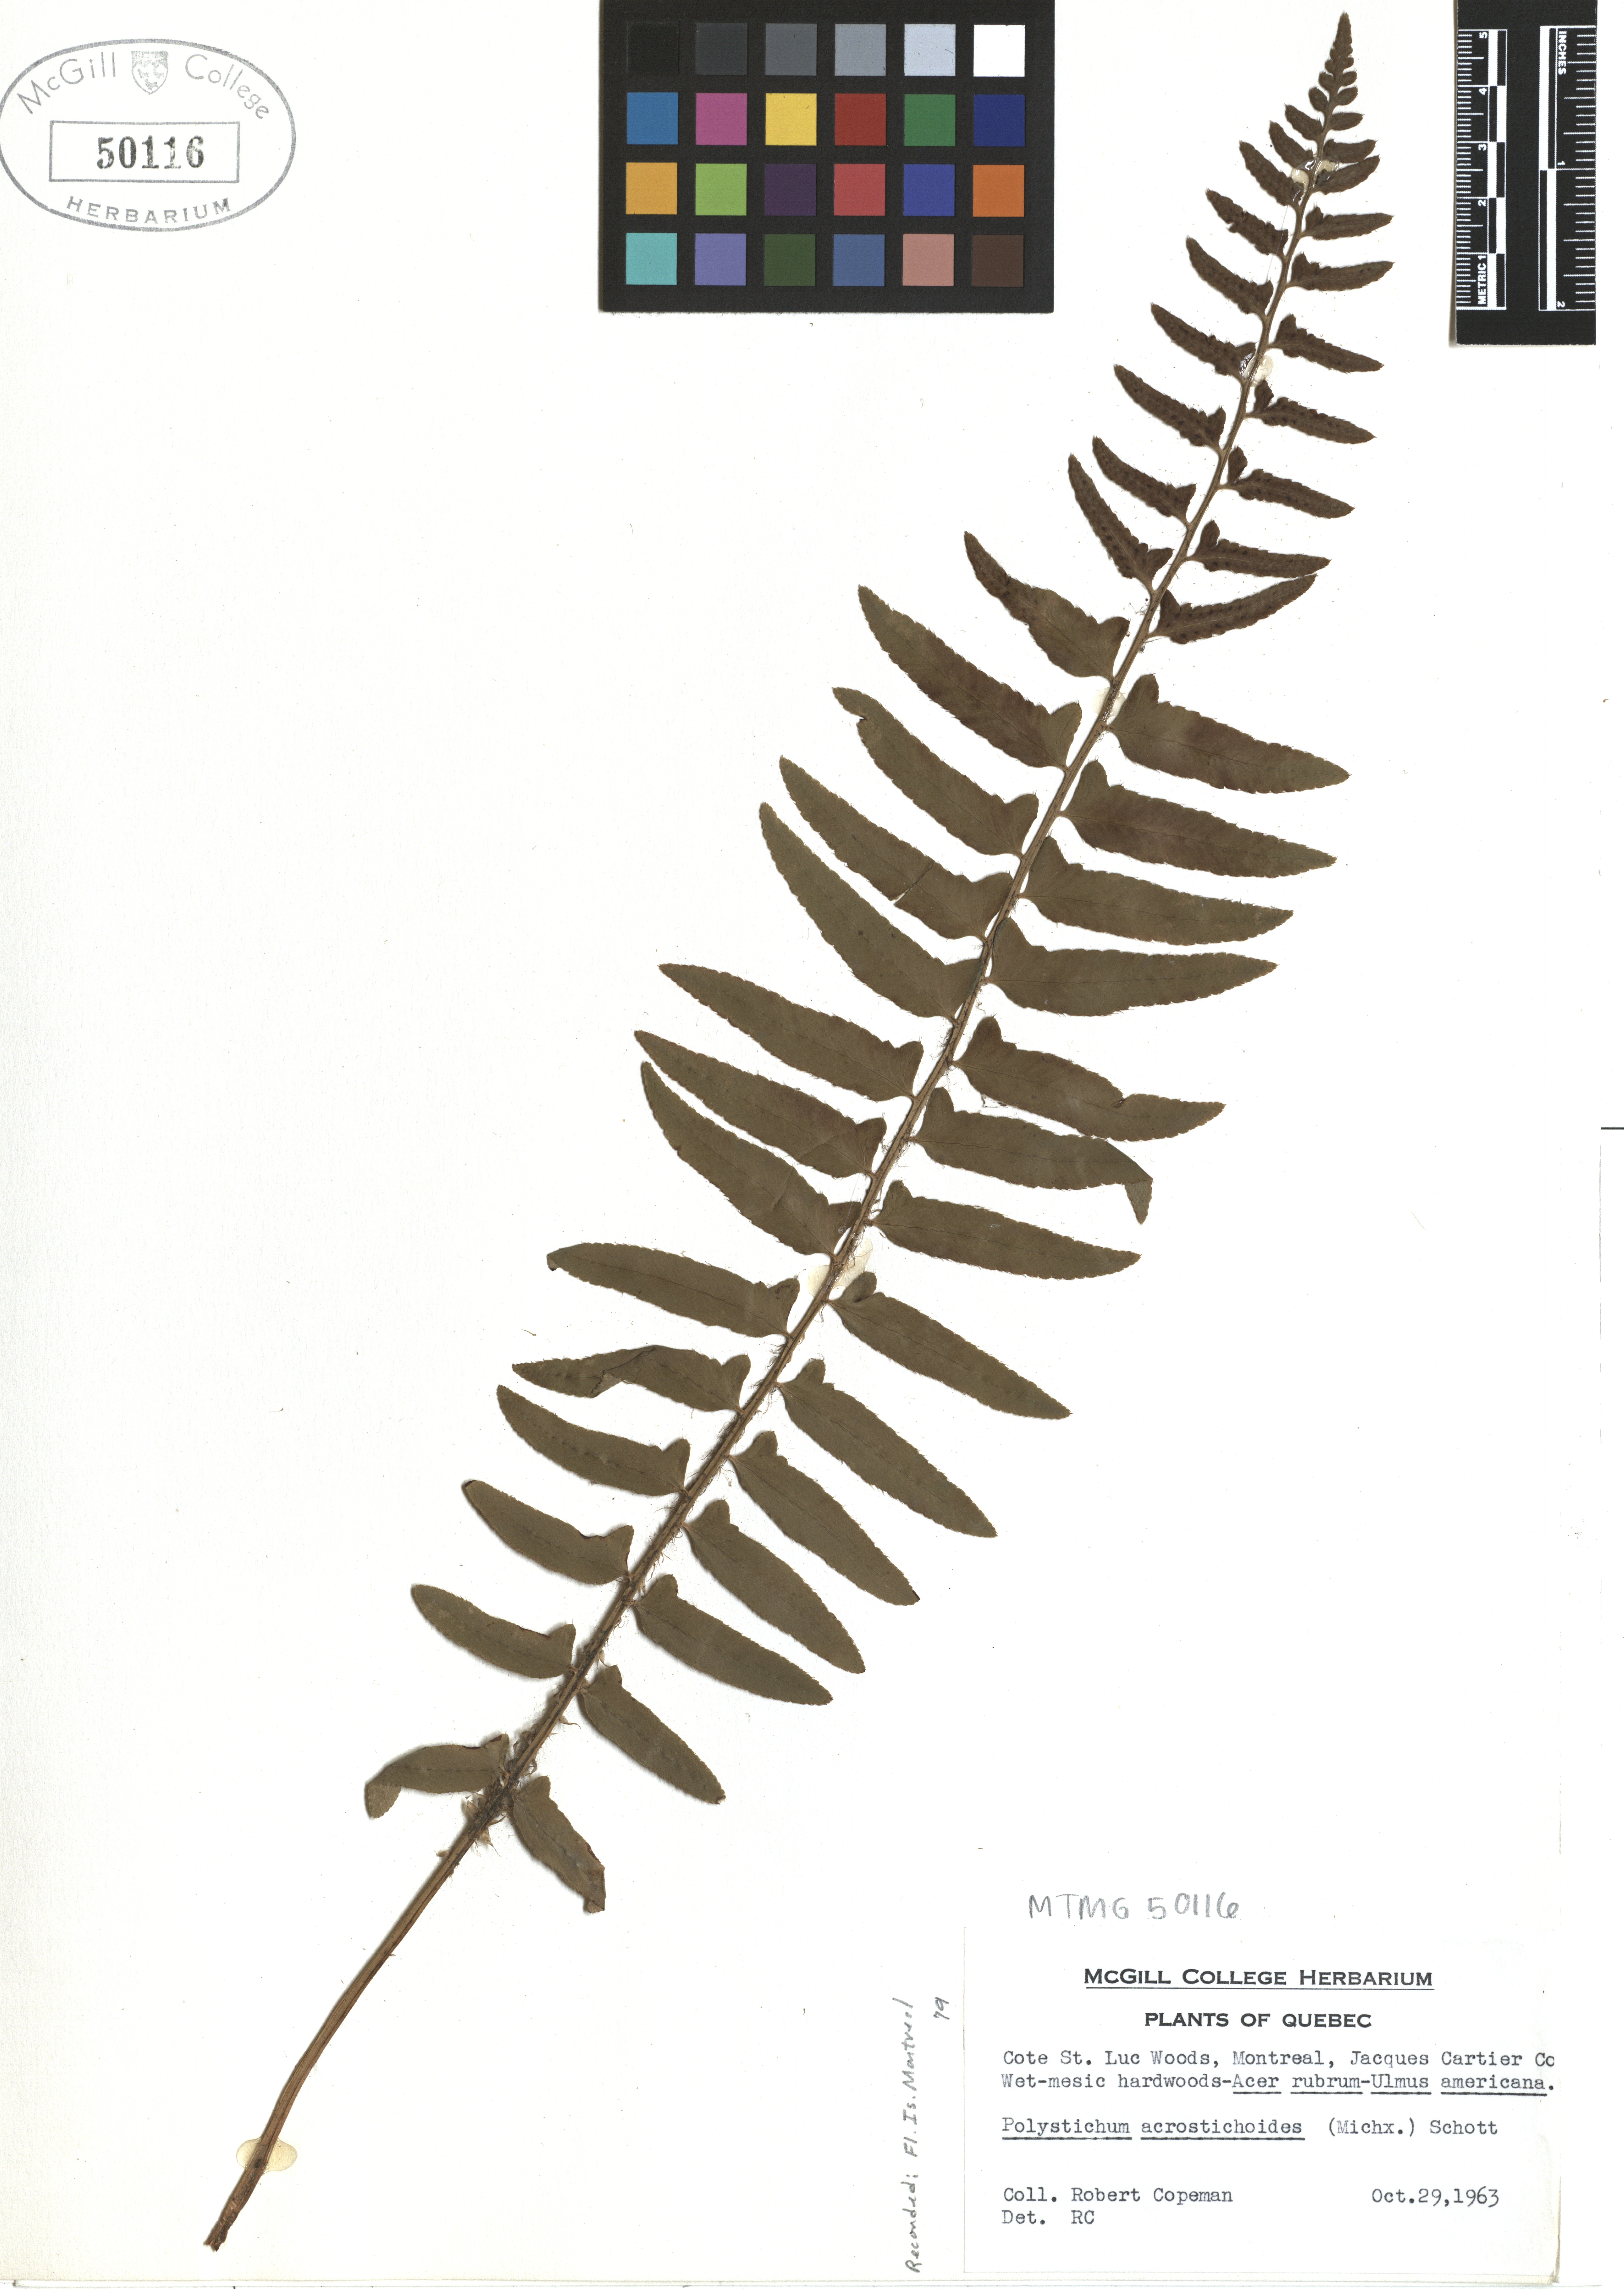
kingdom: Plantae
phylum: Tracheophyta
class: Polypodiopsida
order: Polypodiales
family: Dryopteridaceae
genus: Polystichum
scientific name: Polystichum acrostichoides
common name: Christmas fern
